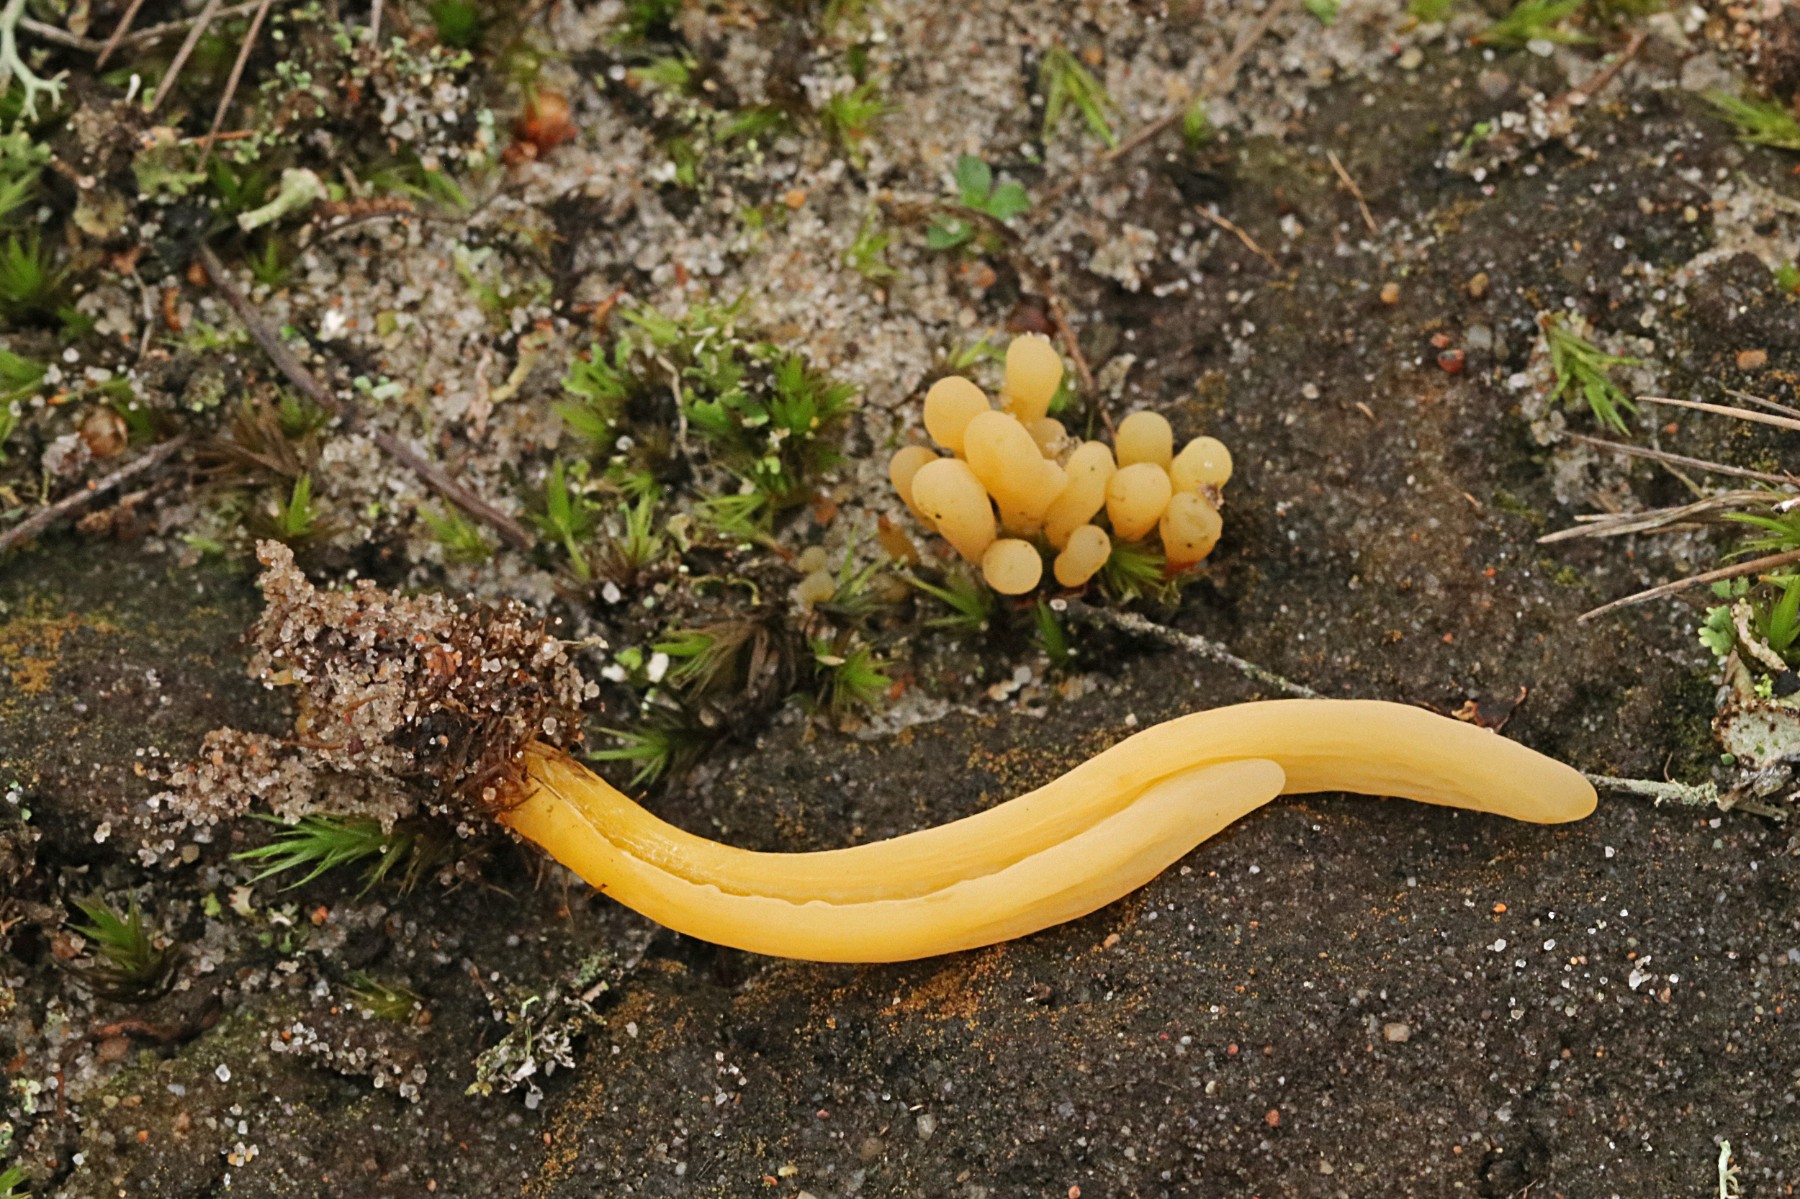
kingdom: Fungi
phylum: Basidiomycota
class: Agaricomycetes
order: Agaricales
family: Clavariaceae
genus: Clavaria
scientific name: Clavaria argillacea
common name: lerfarvet køllesvamp
